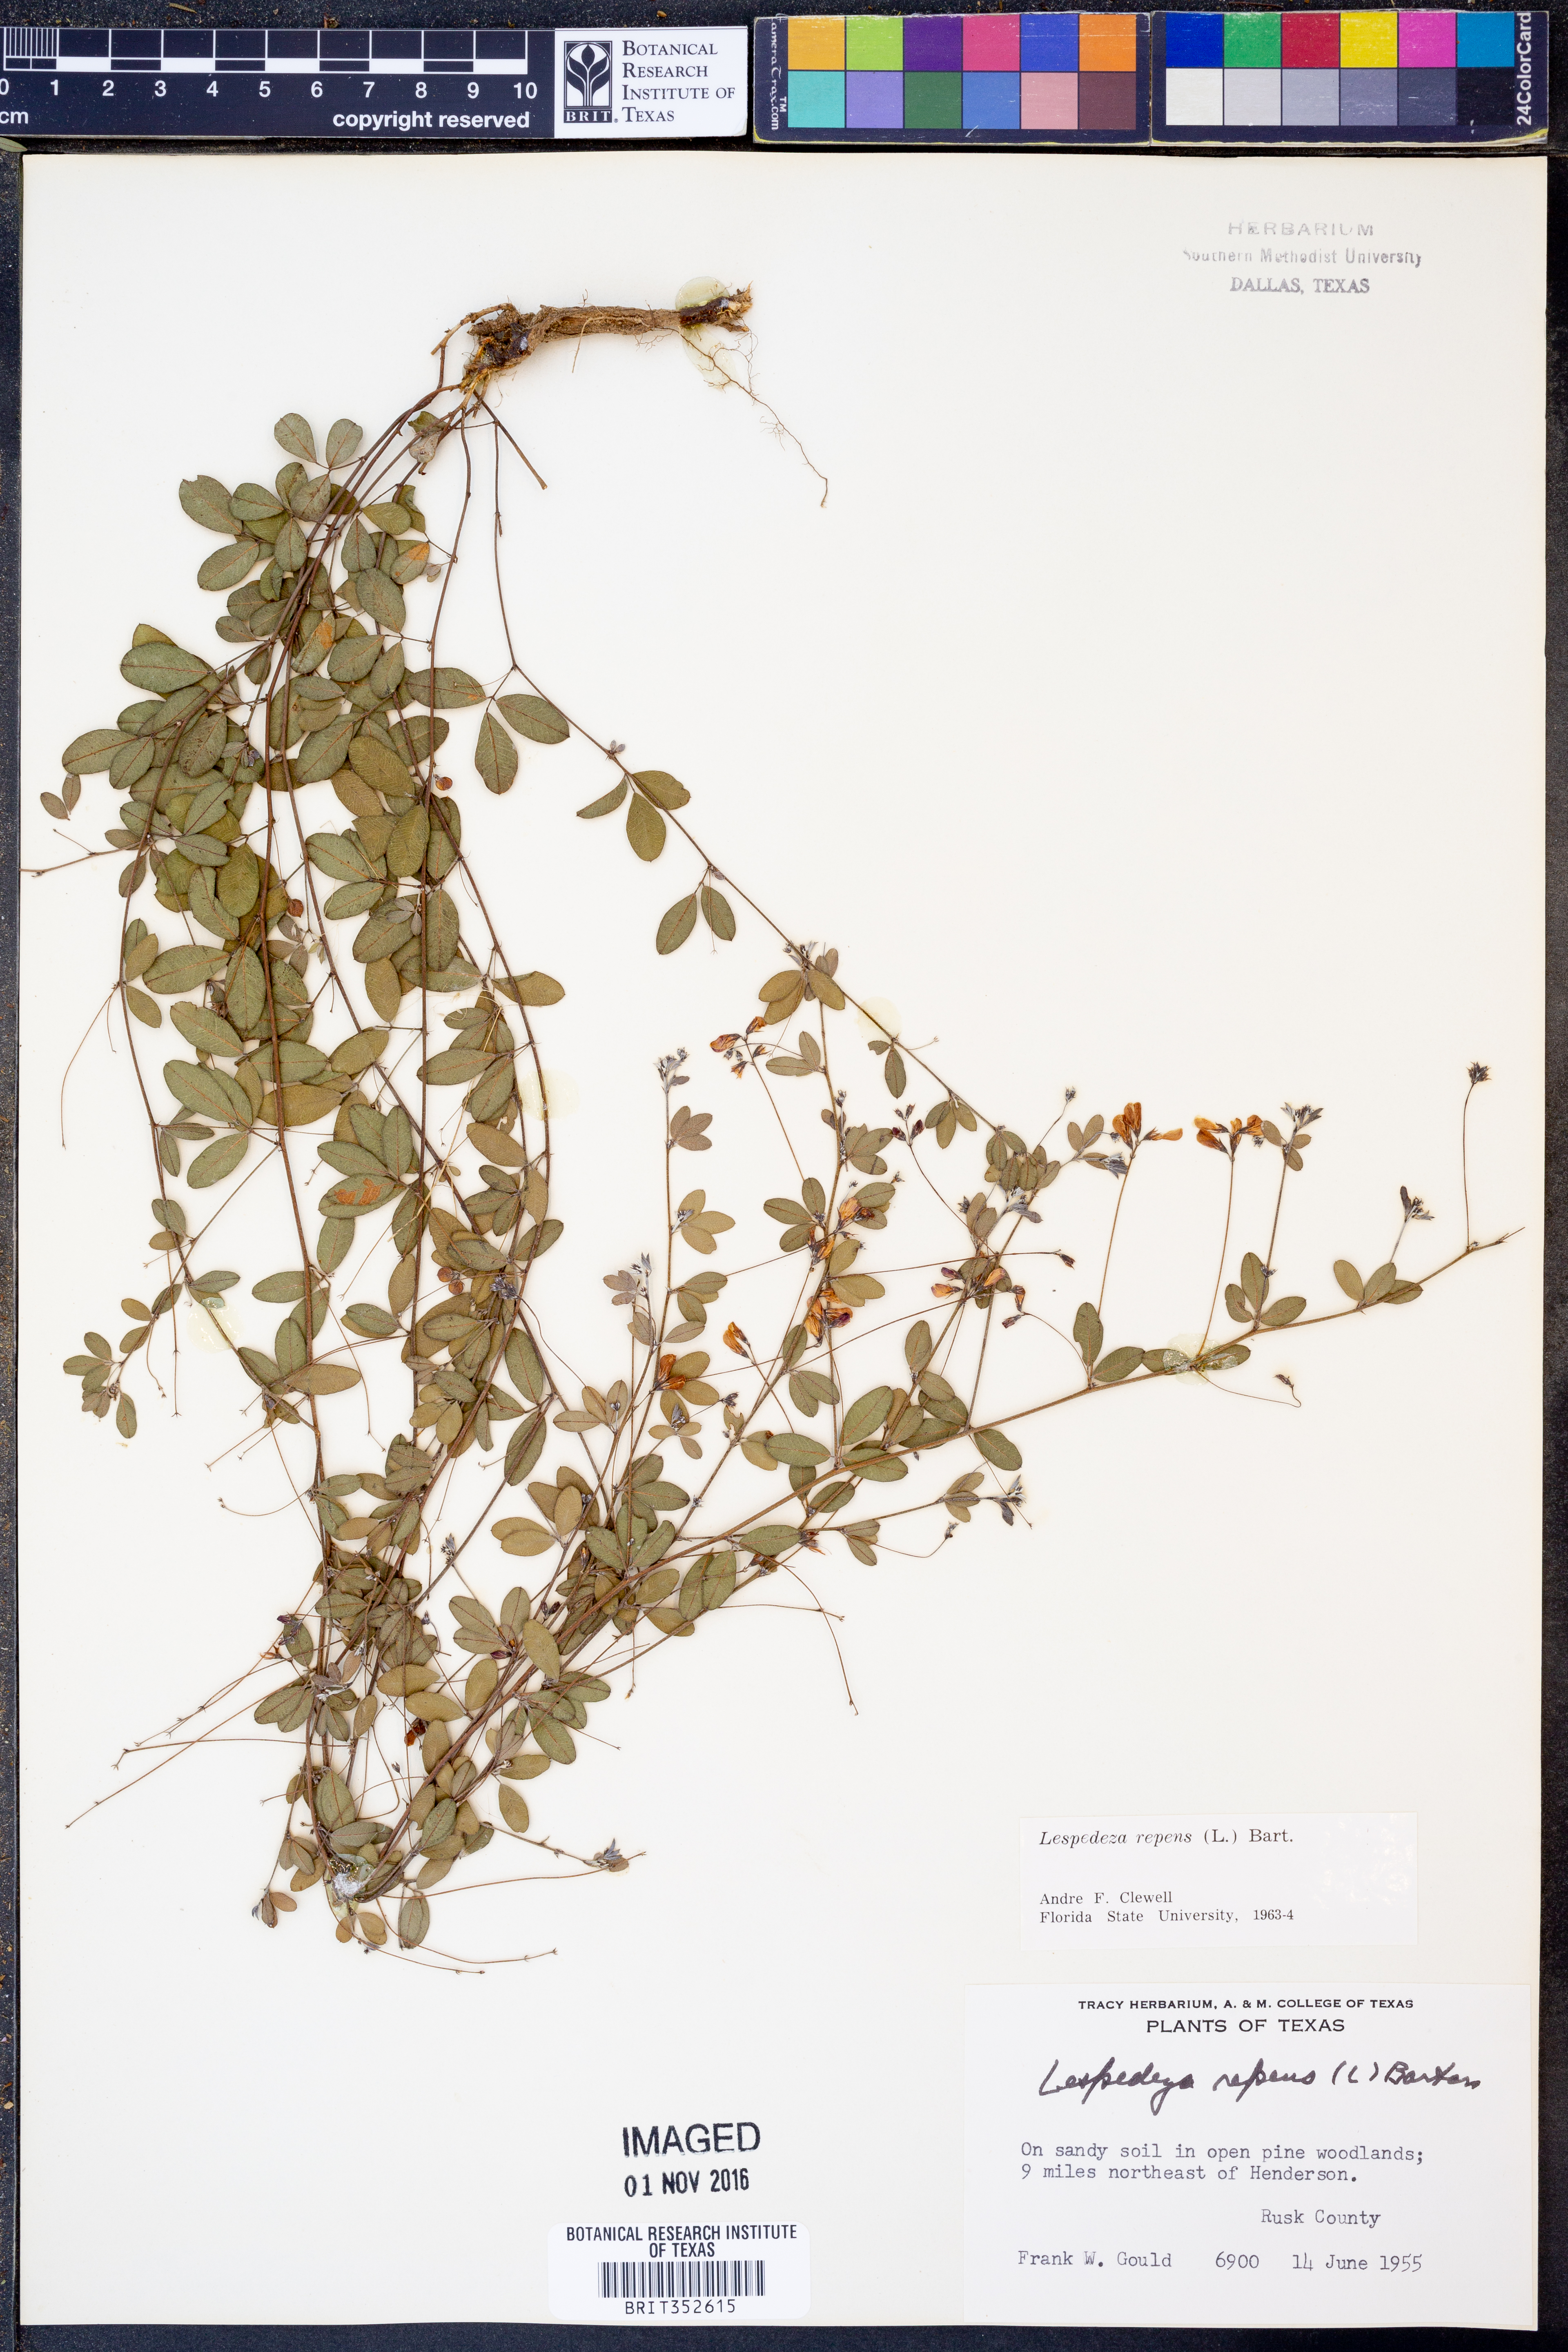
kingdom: Plantae
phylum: Tracheophyta
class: Magnoliopsida
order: Fabales
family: Fabaceae
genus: Lespedeza
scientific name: Lespedeza repens
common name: Creeping bush-clover
